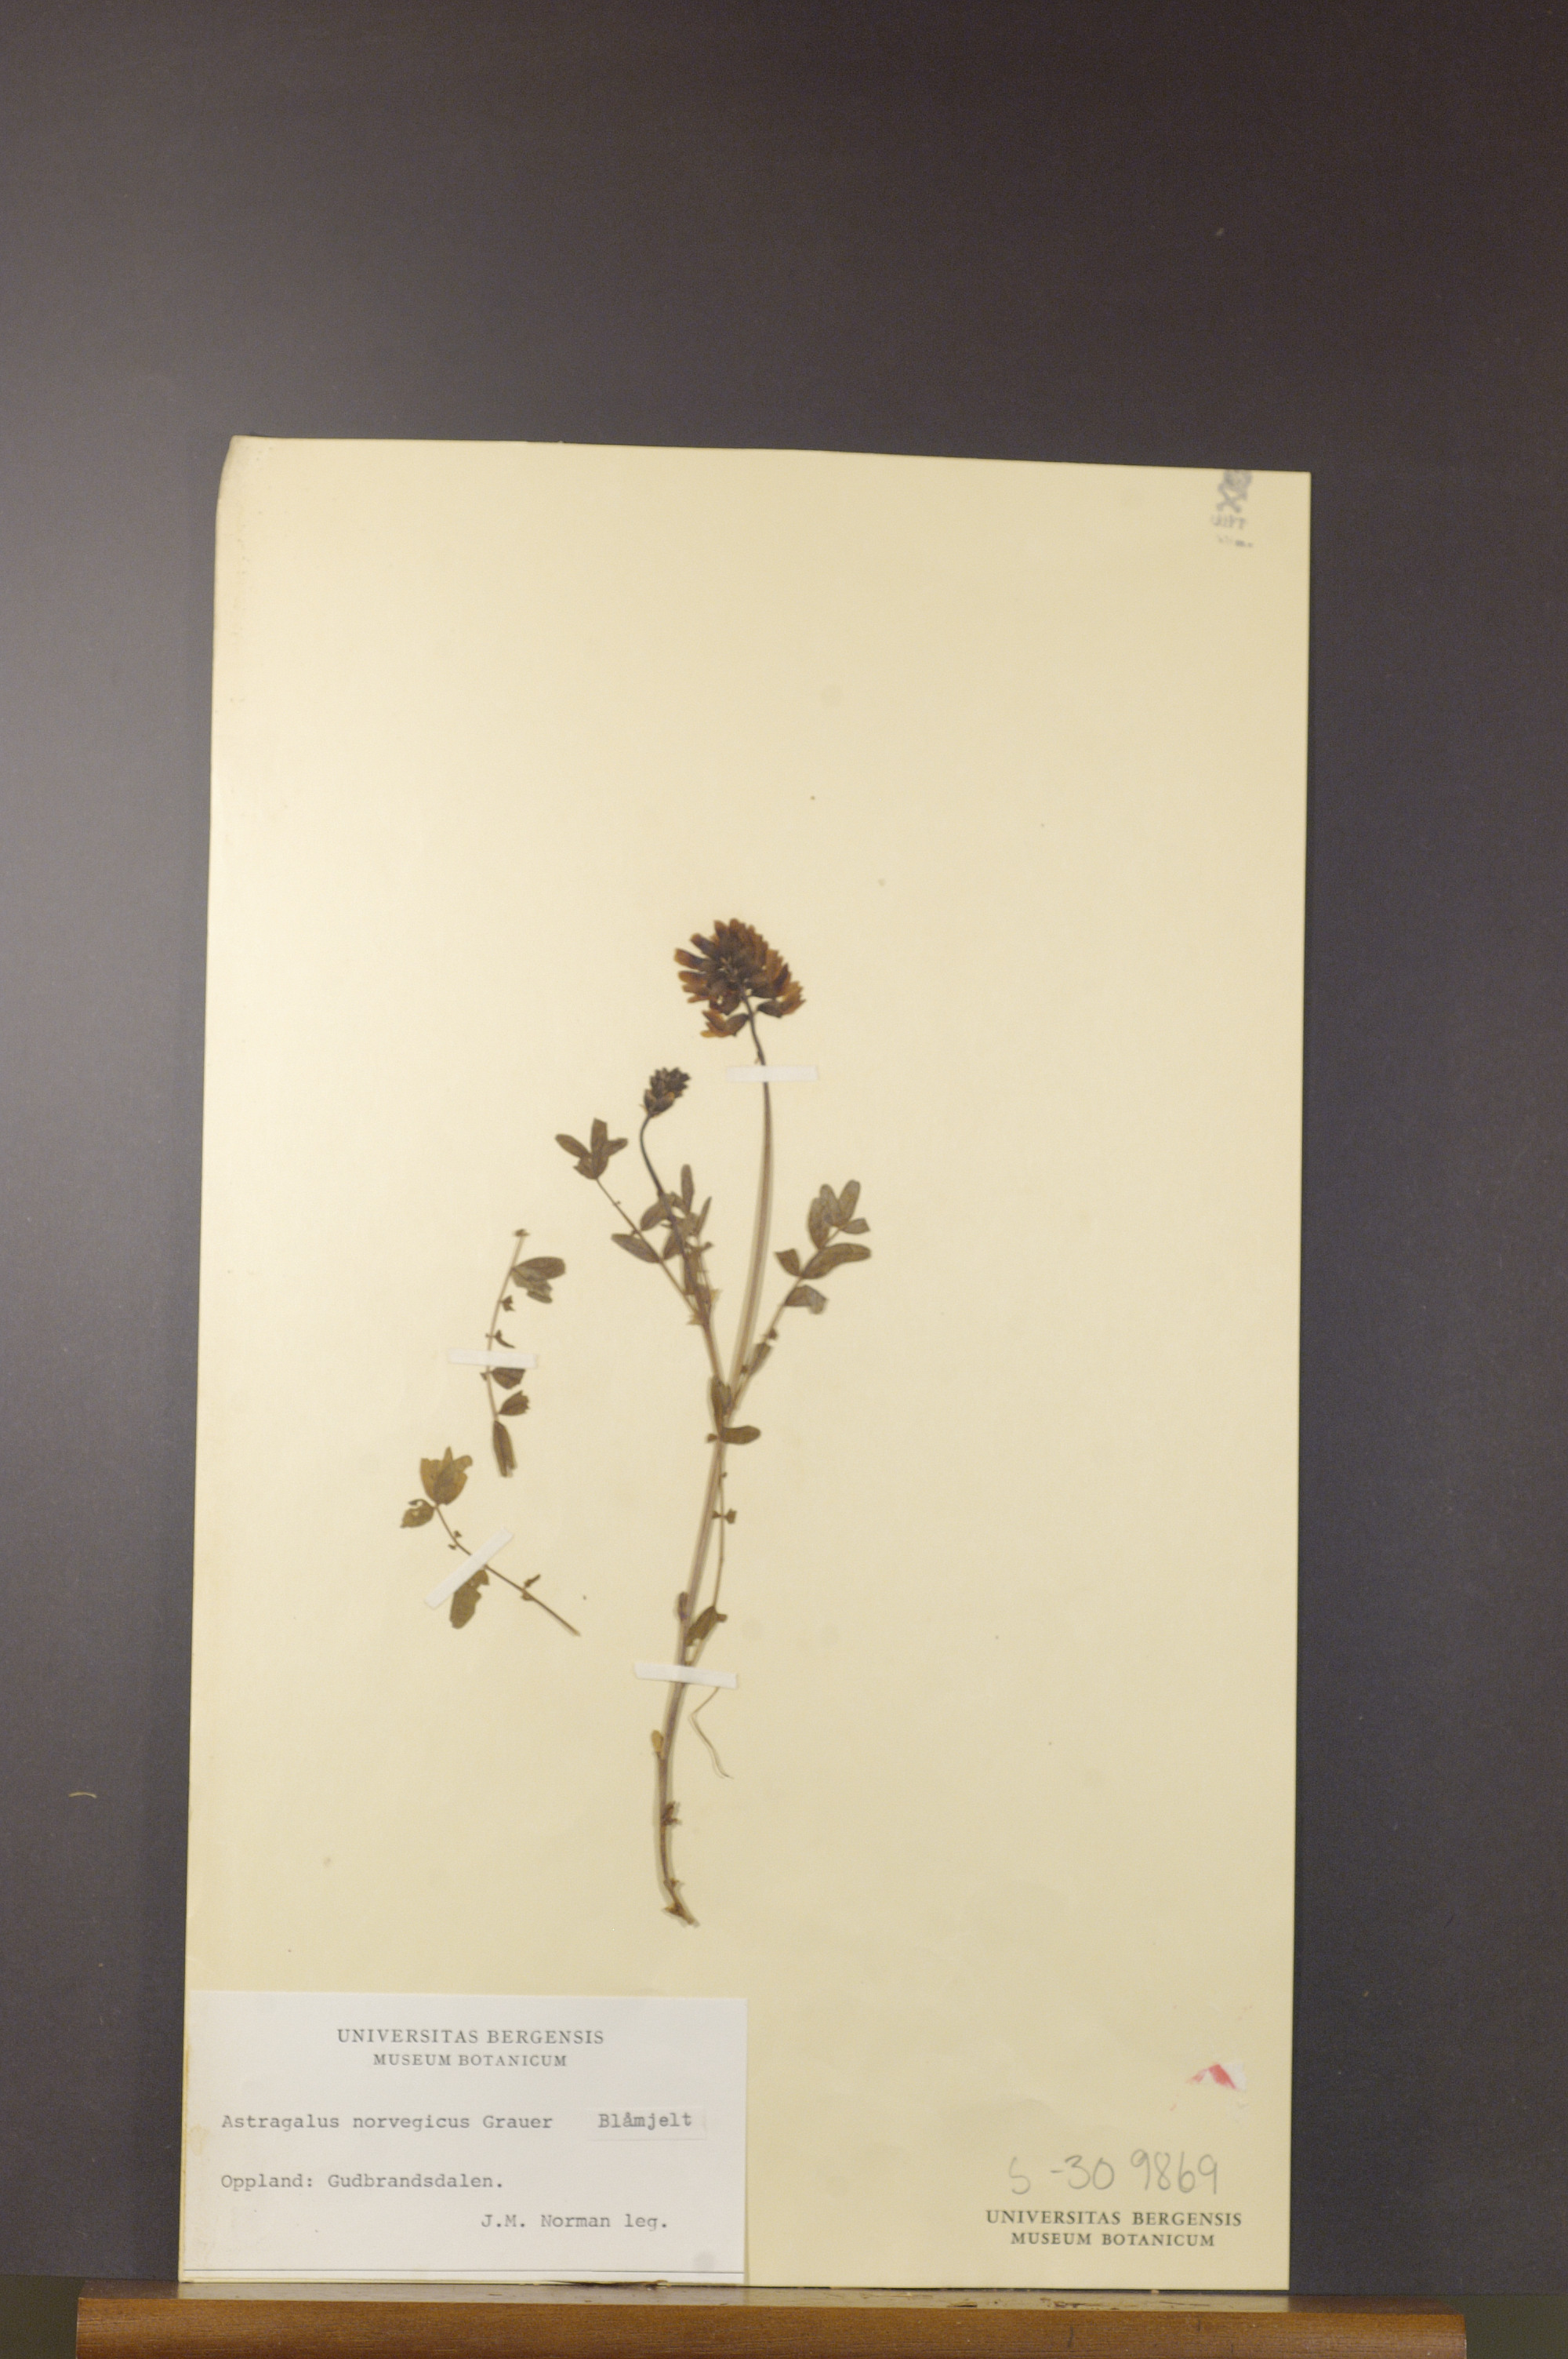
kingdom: Plantae
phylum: Tracheophyta
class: Magnoliopsida
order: Fabales
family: Fabaceae
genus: Astragalus
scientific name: Astragalus norvegicus
